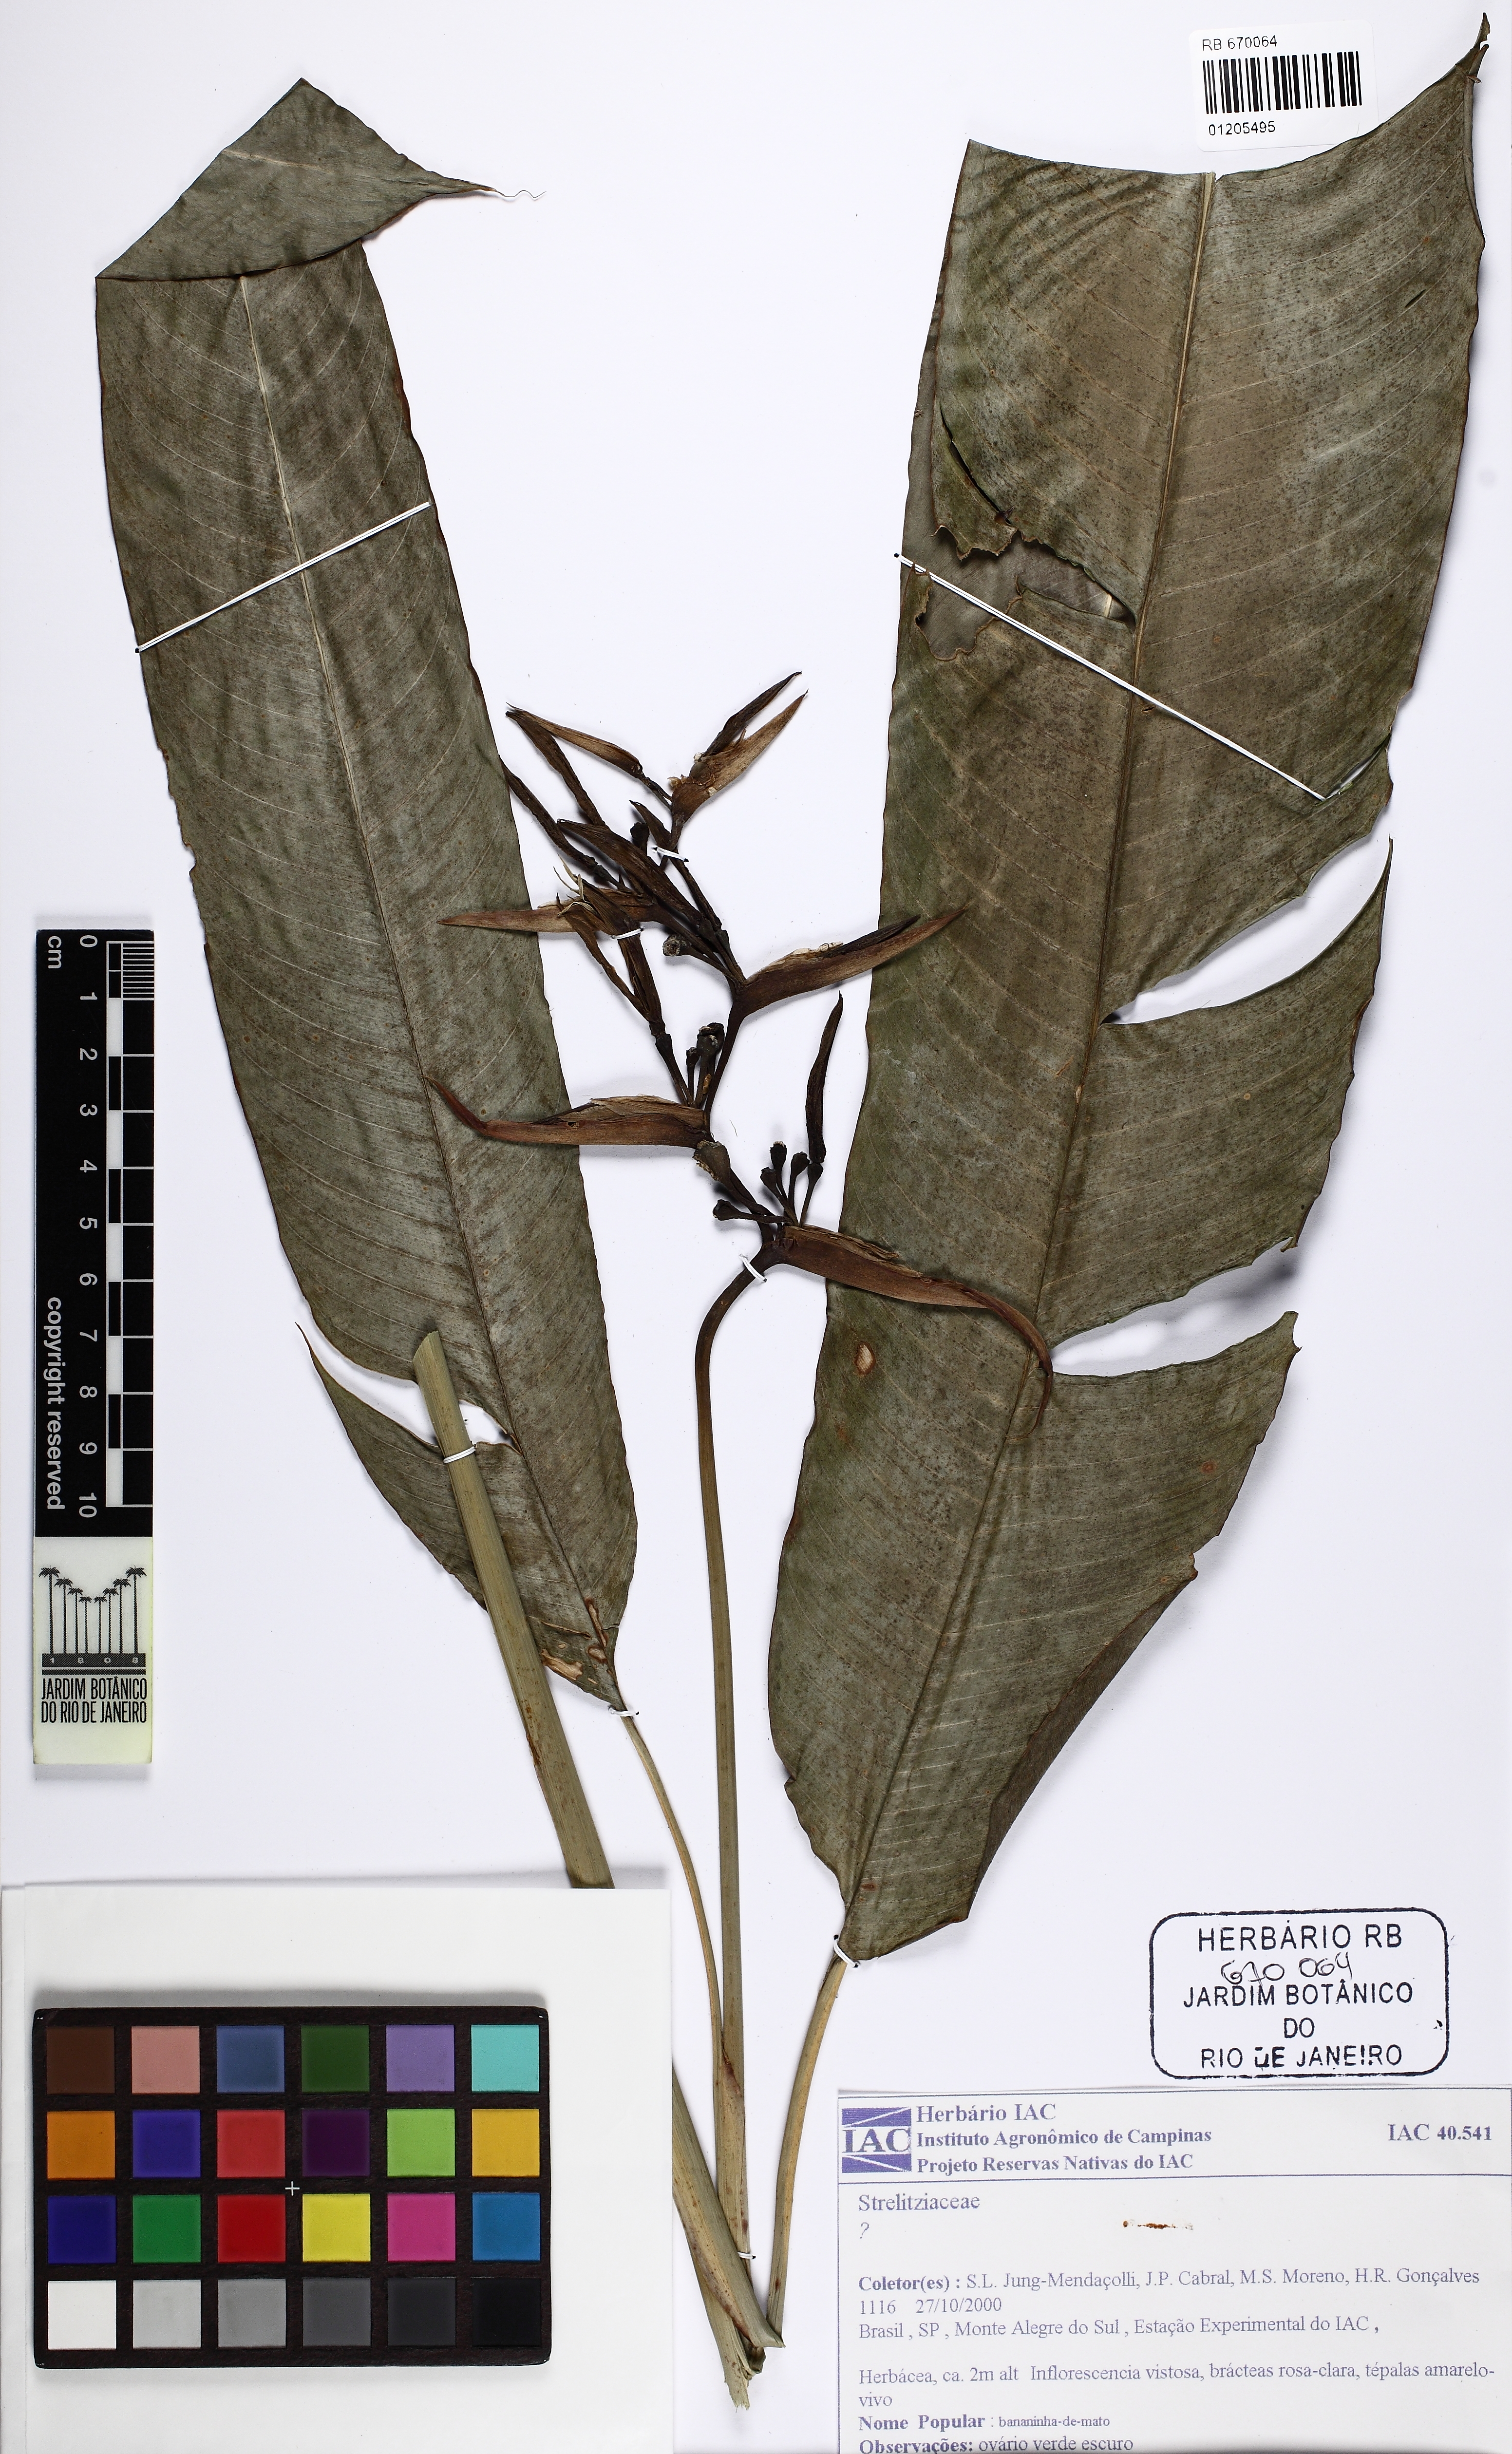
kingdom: Plantae
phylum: Tracheophyta
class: Liliopsida
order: Zingiberales
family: Strelitziaceae
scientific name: Strelitziaceae
